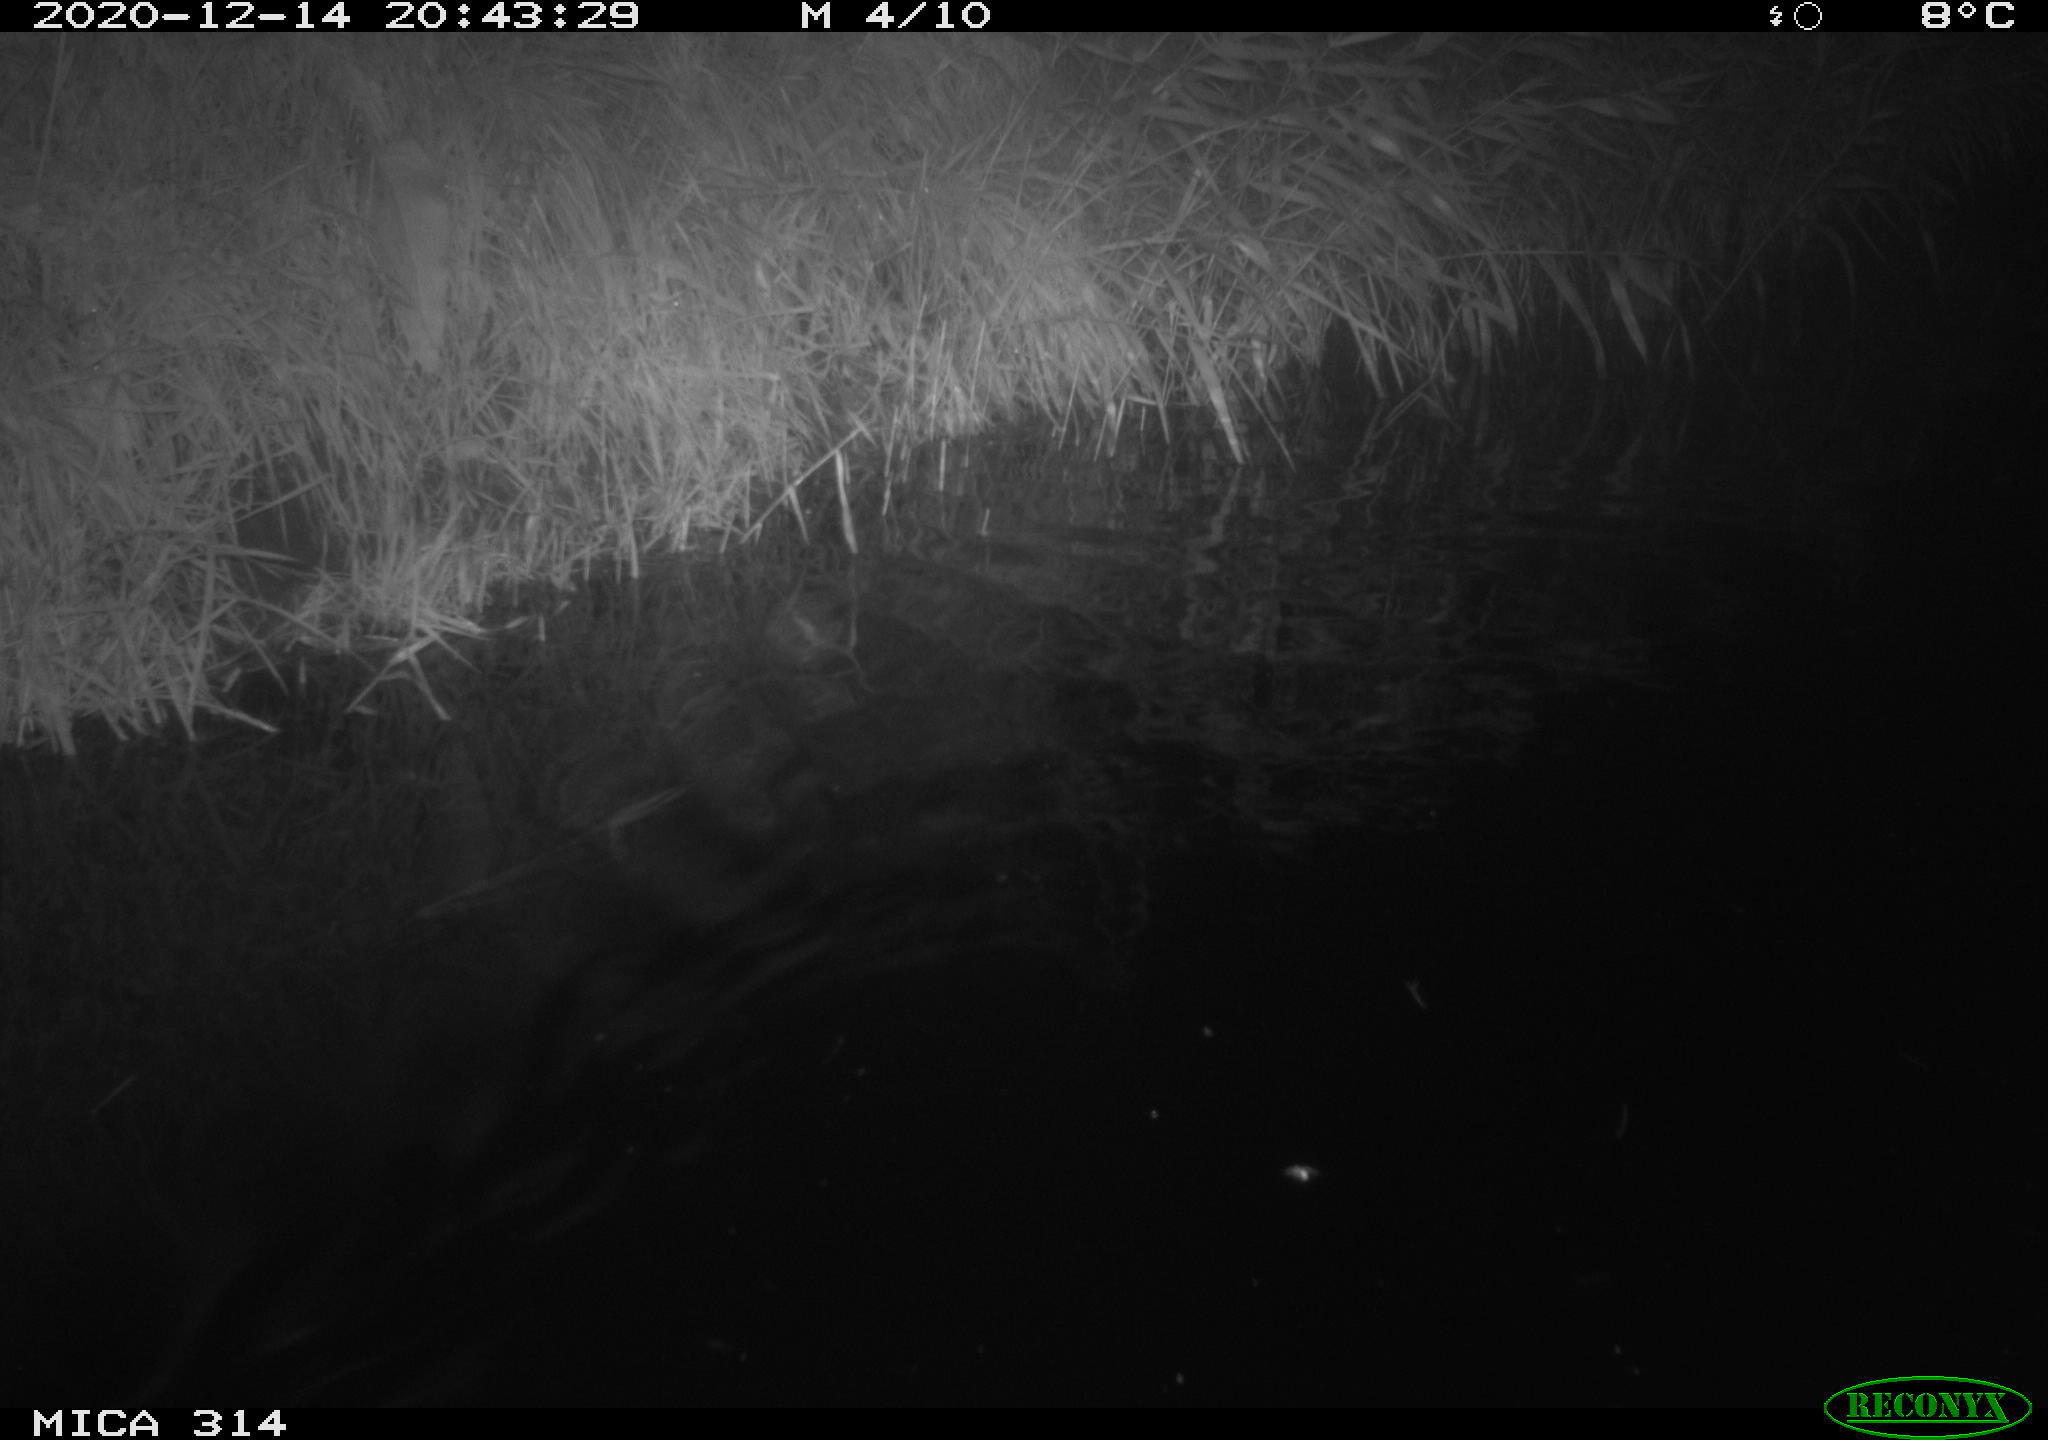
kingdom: Animalia
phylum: Chordata
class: Mammalia
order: Rodentia
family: Muridae
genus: Rattus
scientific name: Rattus norvegicus
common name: Brown rat
